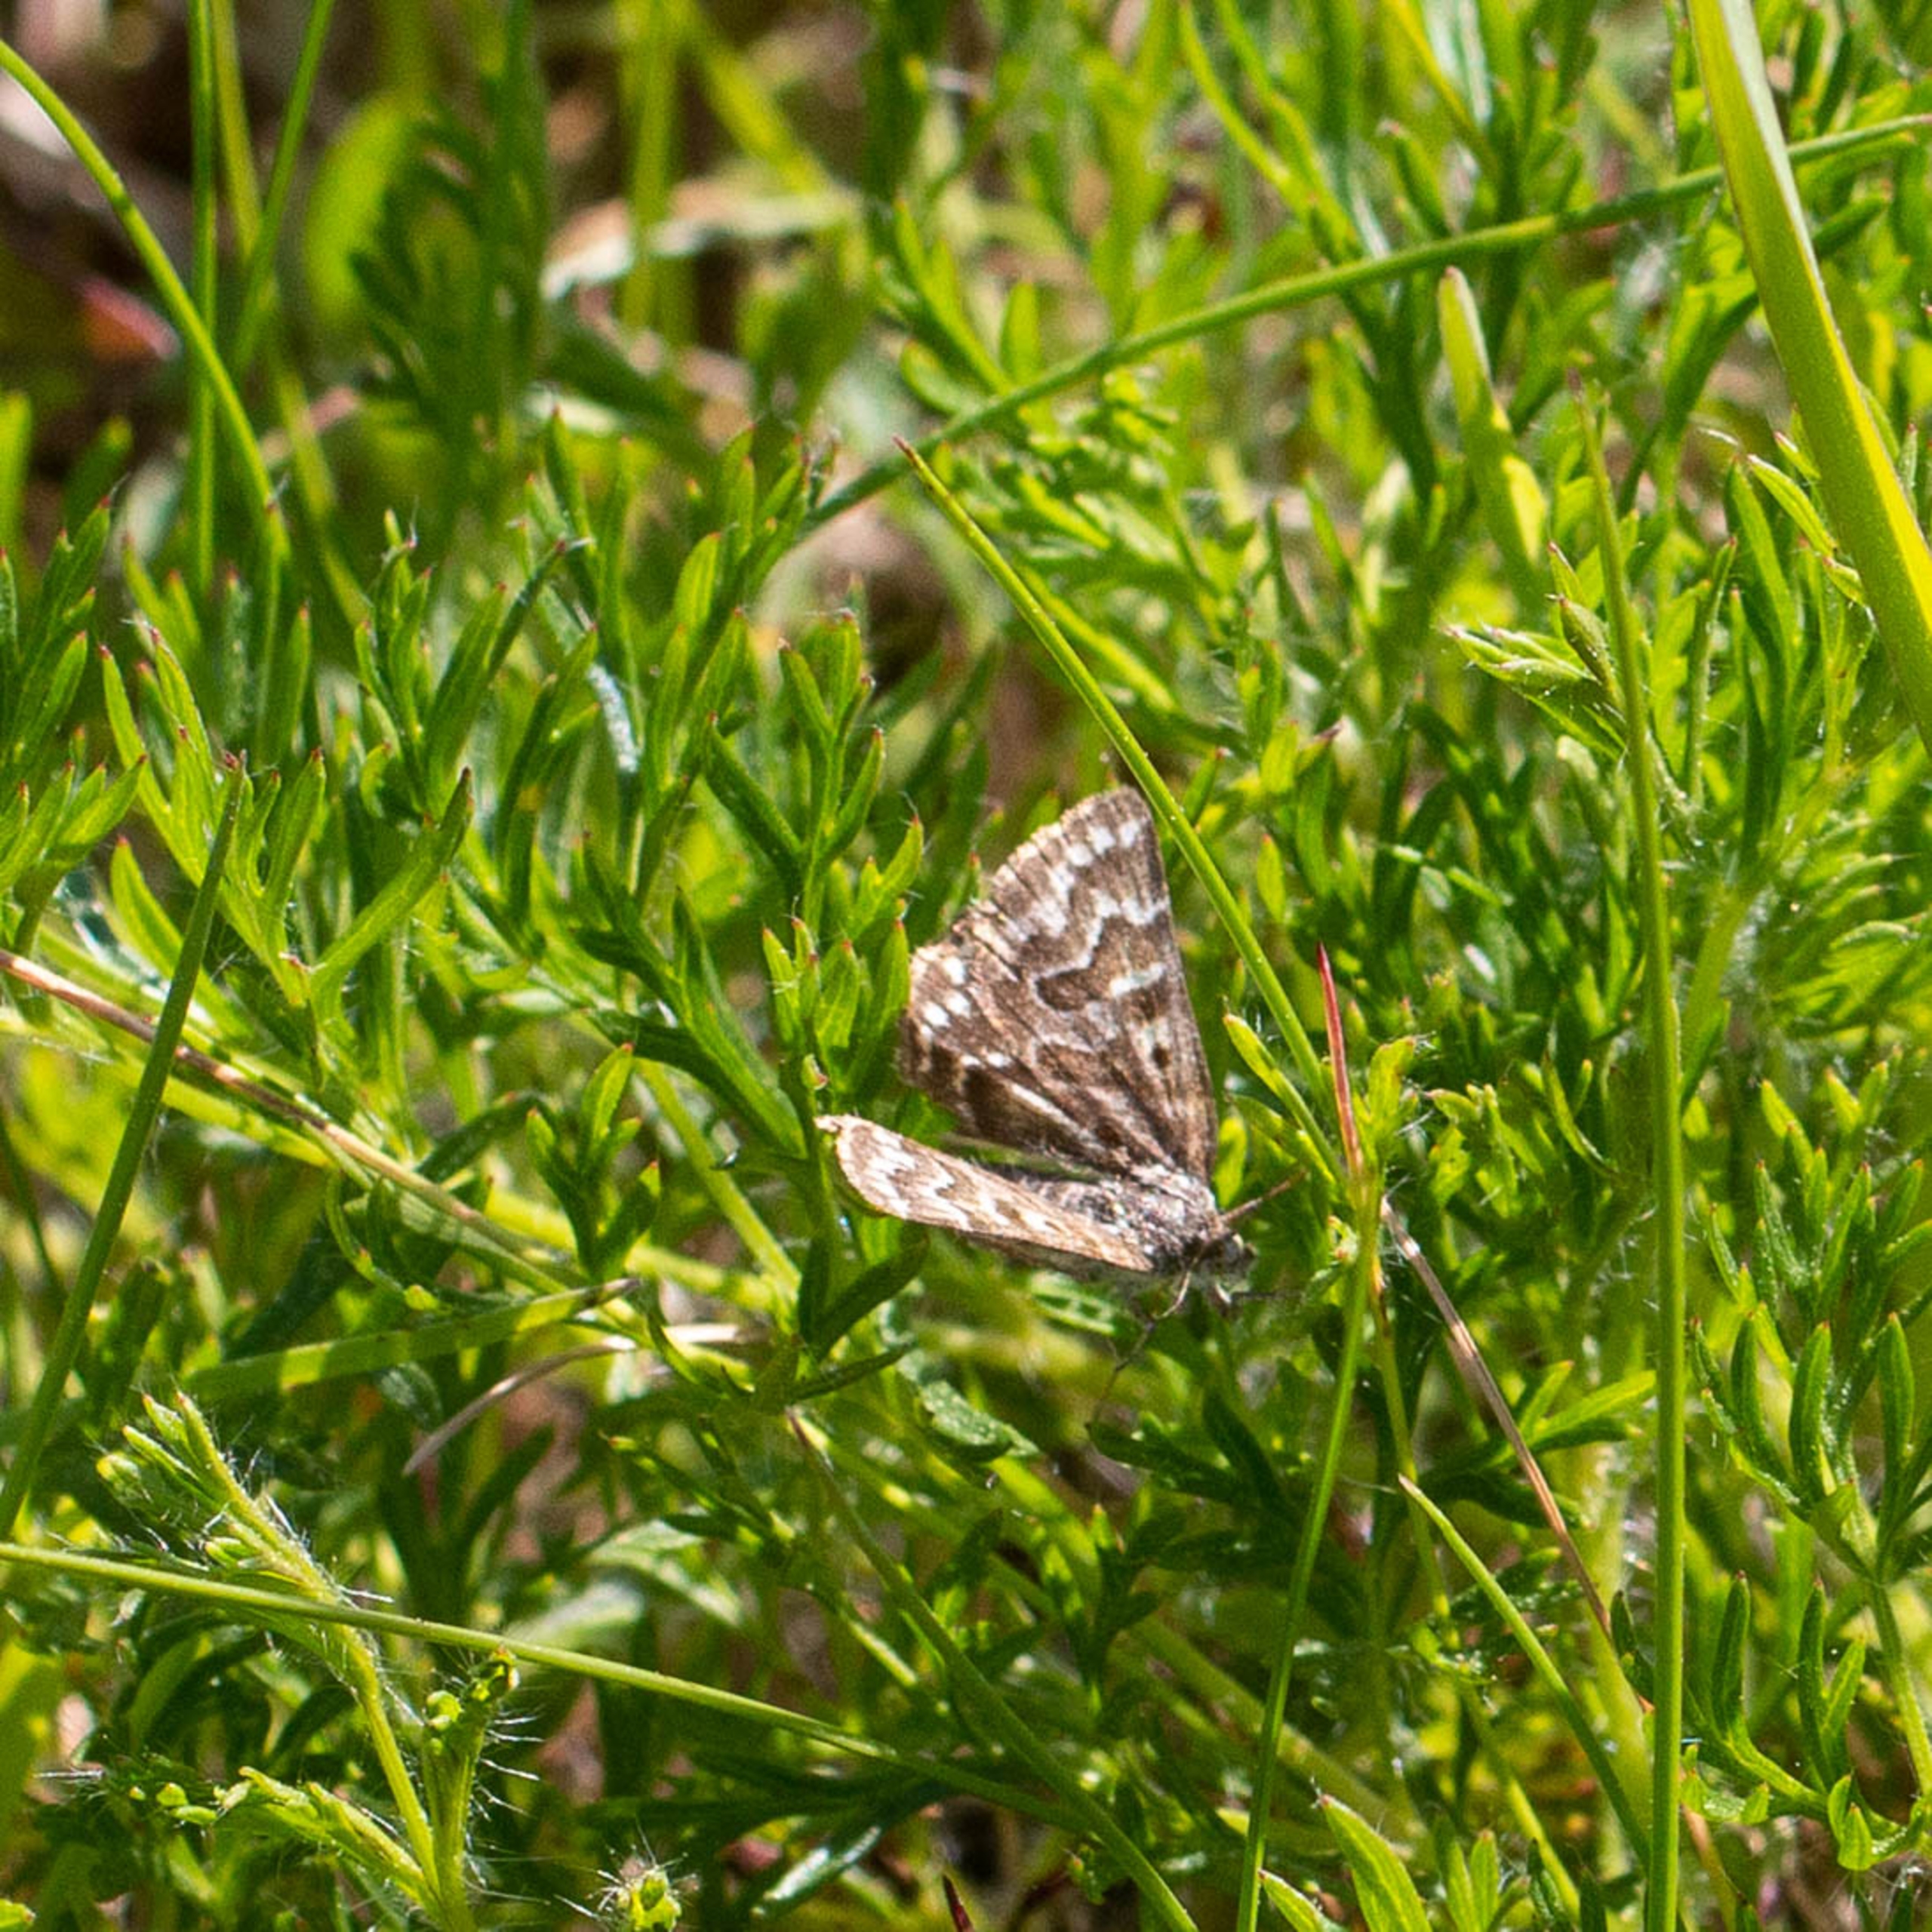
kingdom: Animalia
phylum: Arthropoda
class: Insecta
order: Lepidoptera
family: Erebidae
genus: Callistege
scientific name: Callistege mi
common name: Marmoreret kløverugle
